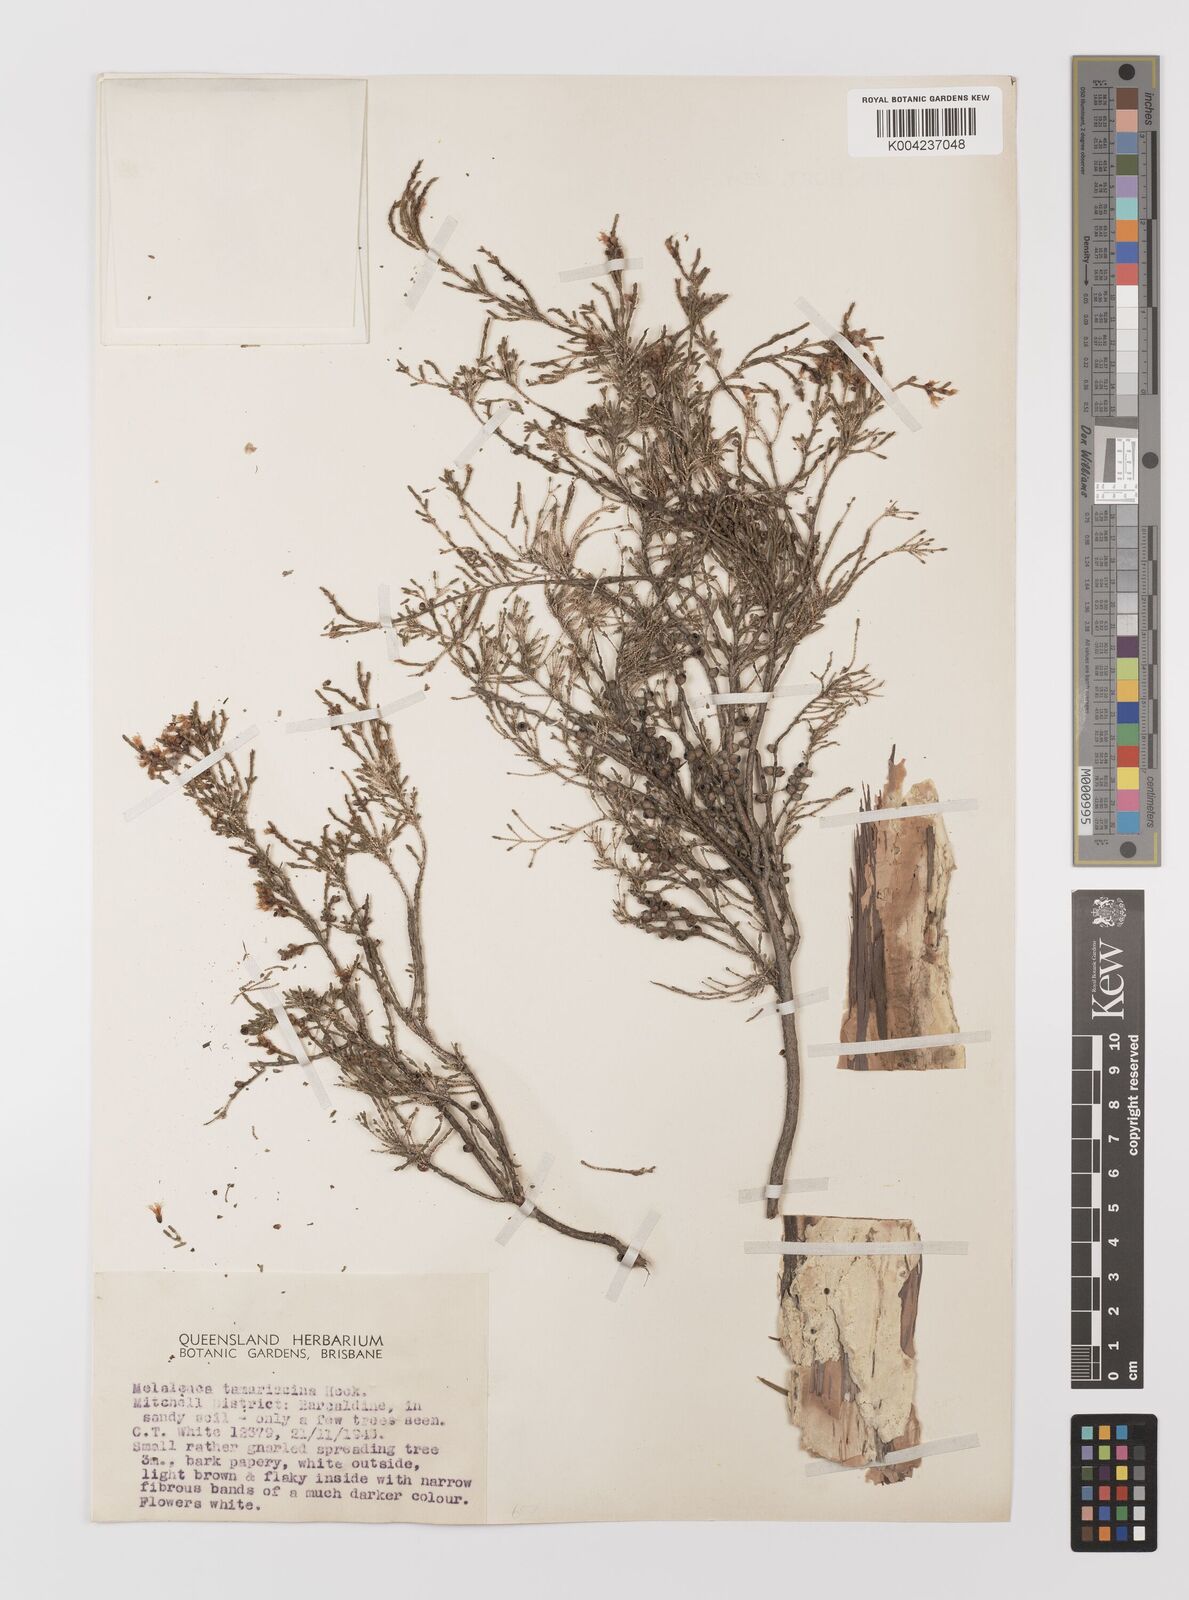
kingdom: Plantae
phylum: Tracheophyta
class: Magnoliopsida
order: Myrtales
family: Myrtaceae
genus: Melaleuca
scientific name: Melaleuca tamariscina
